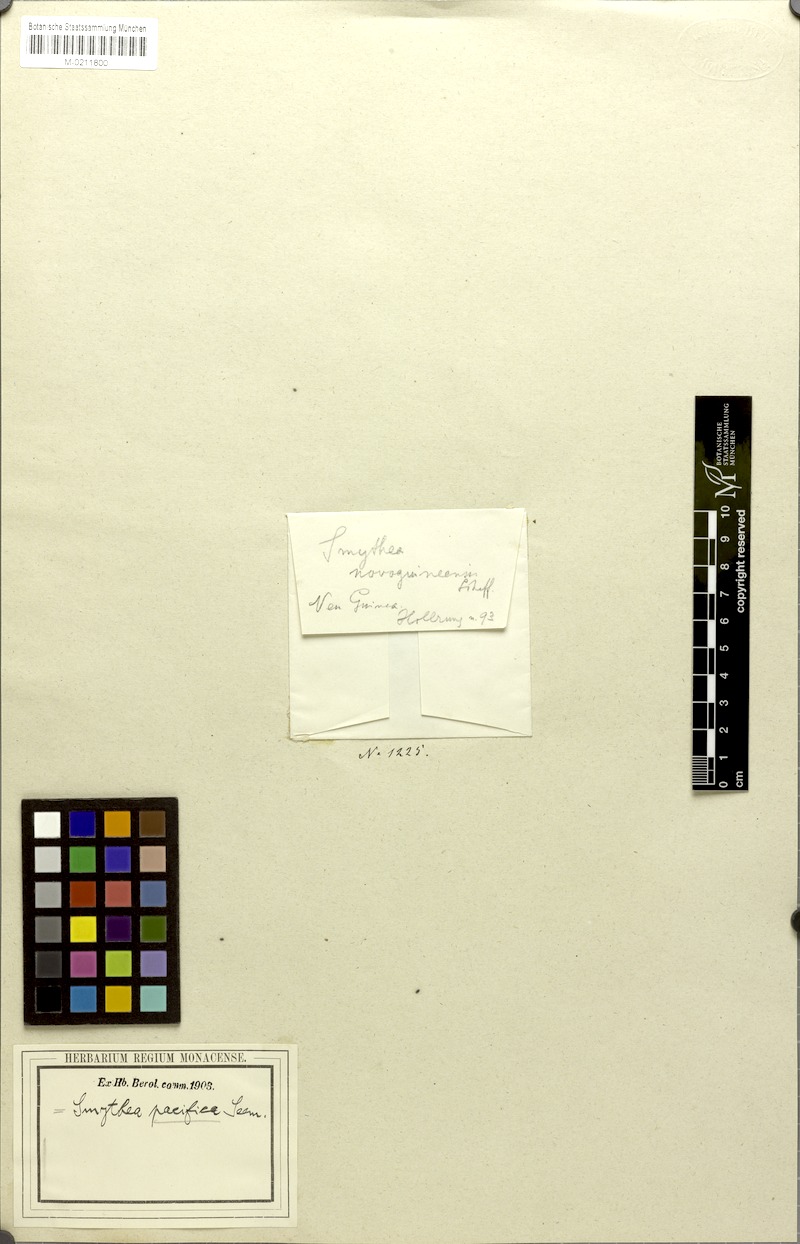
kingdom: Plantae
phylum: Tracheophyta
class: Magnoliopsida
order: Rosales
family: Rhamnaceae
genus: Smythea
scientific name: Smythea lanceata
